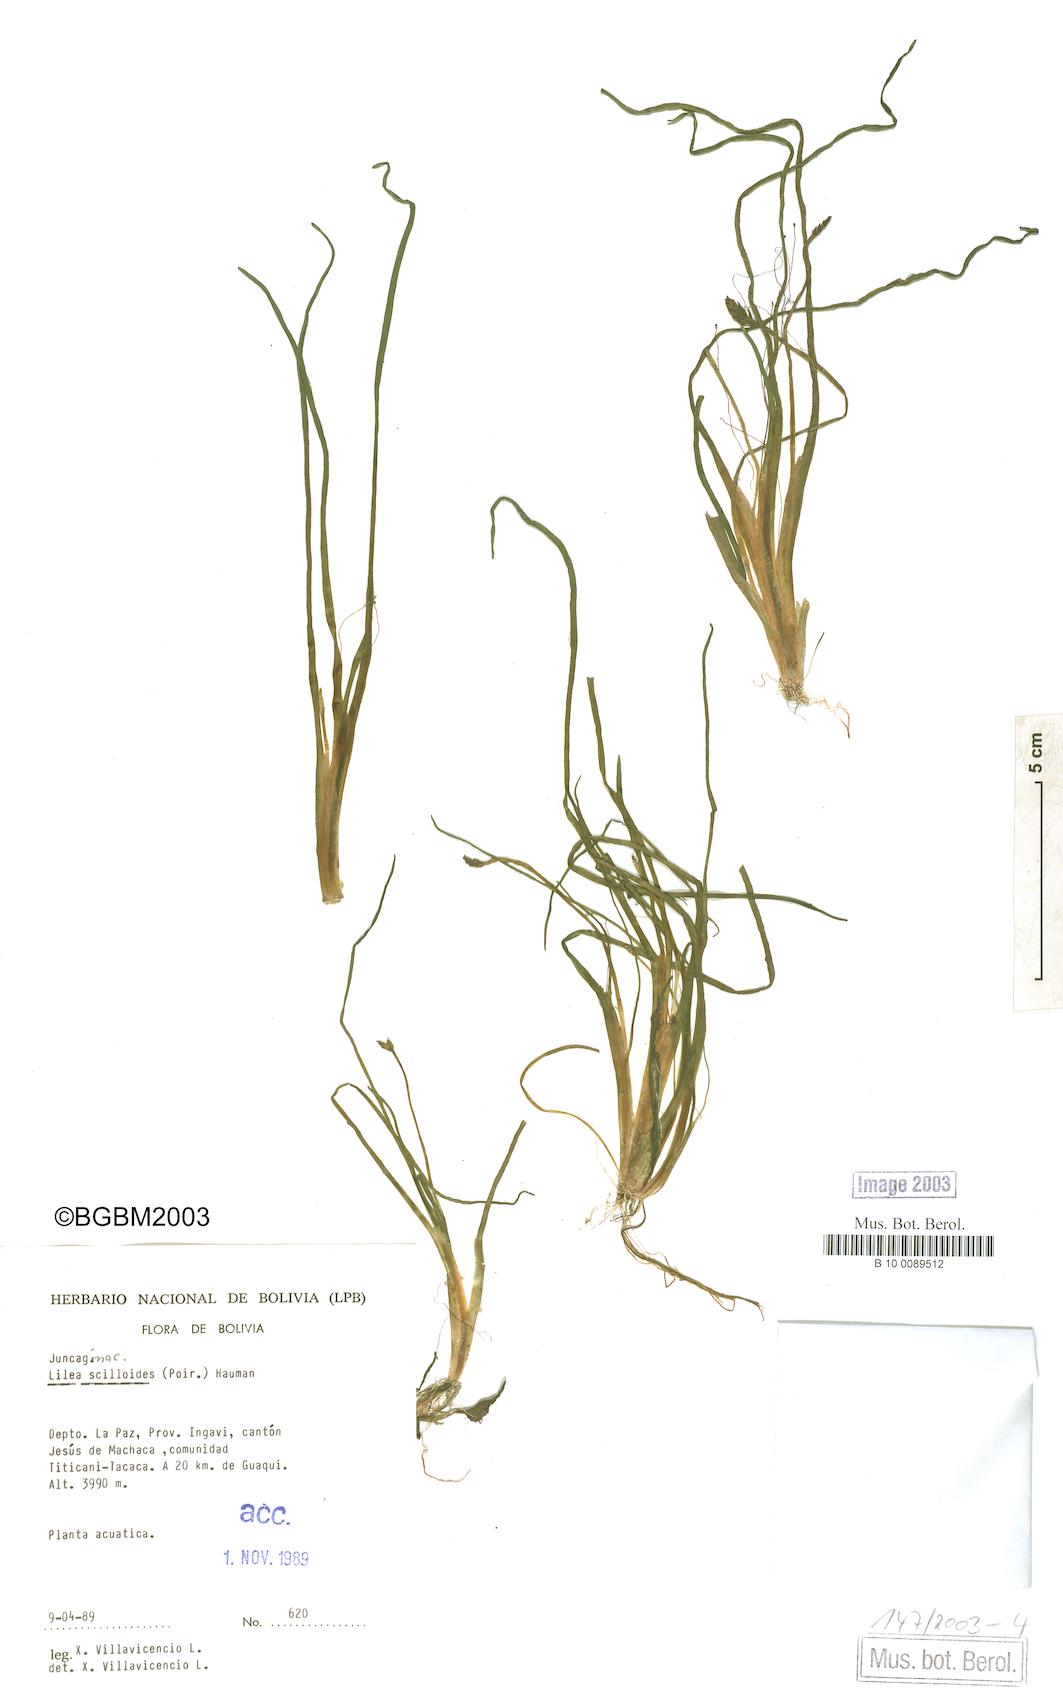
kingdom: Plantae
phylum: Tracheophyta
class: Liliopsida
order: Alismatales
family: Juncaginaceae
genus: Triglochin
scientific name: Triglochin scilloides
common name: Awl-leaved lilaea
